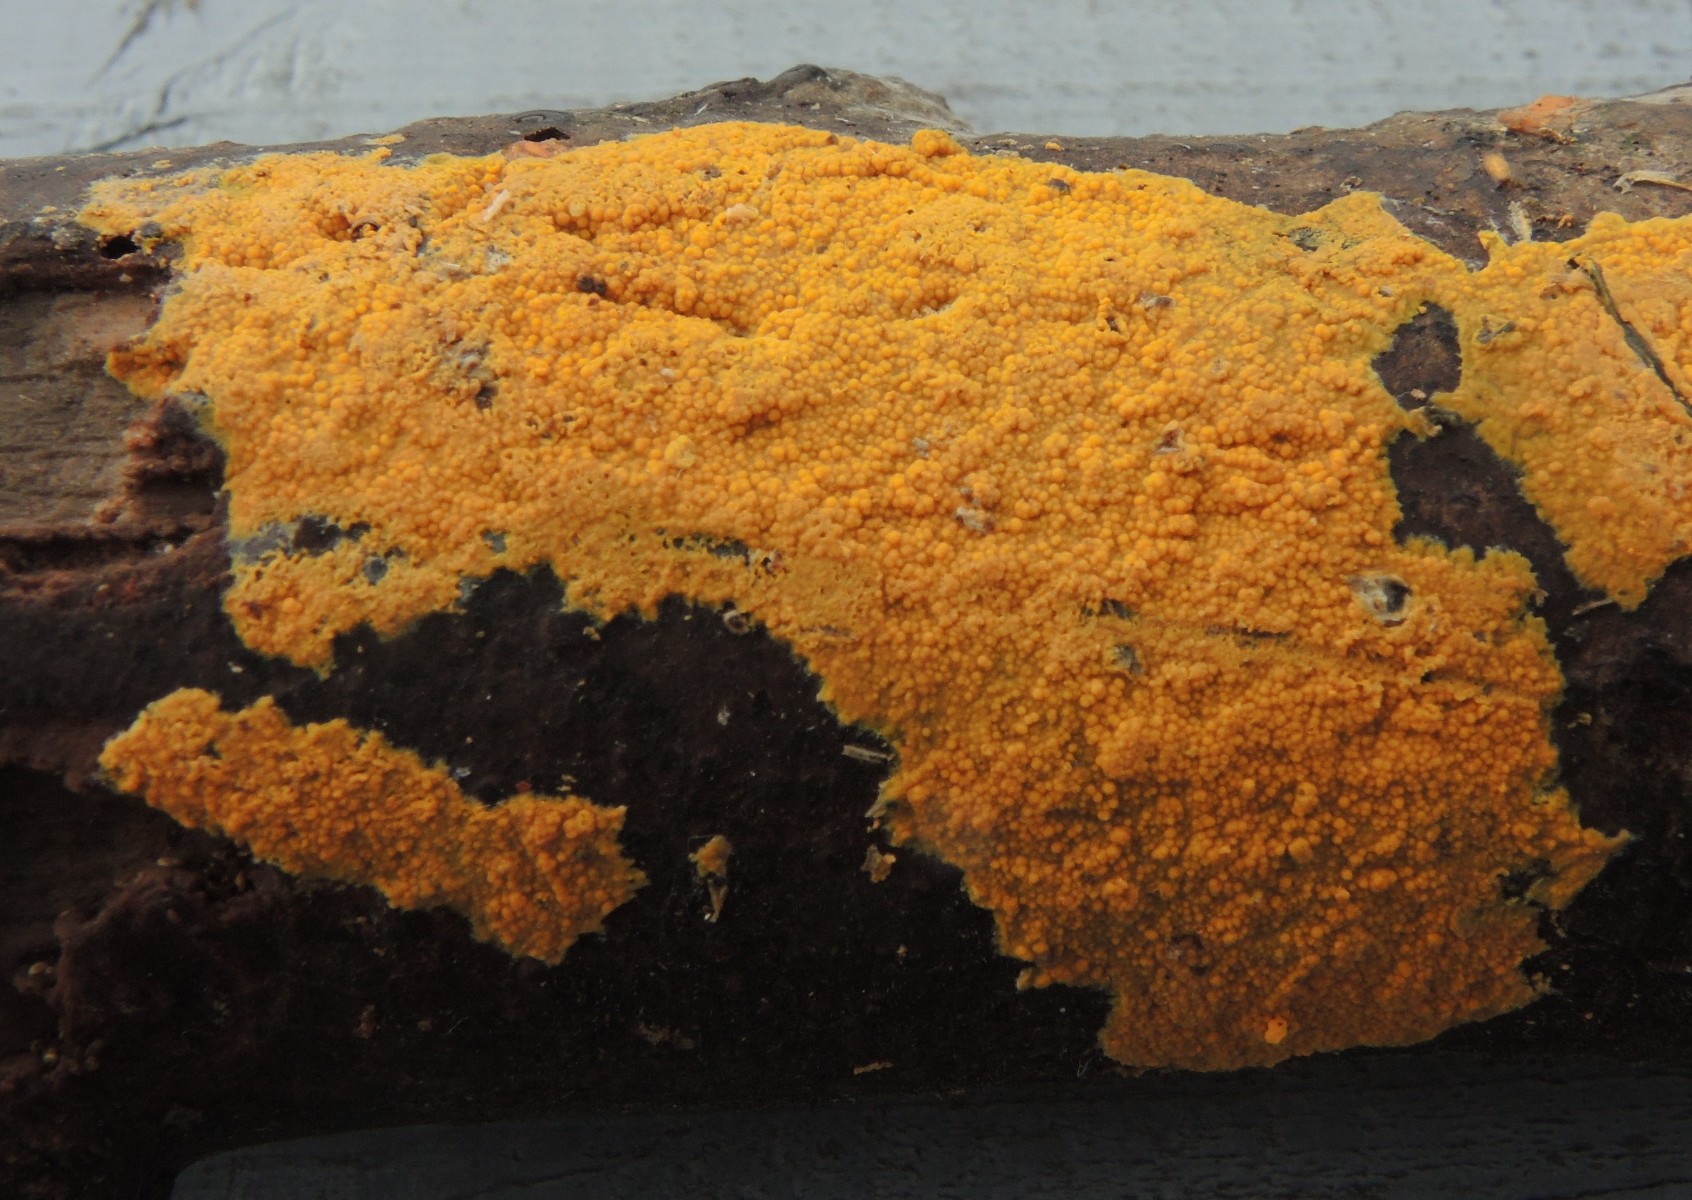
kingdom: Fungi
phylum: Basidiomycota
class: Agaricomycetes
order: Polyporales
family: Meruliaceae
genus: Phlebiodontia
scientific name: Phlebiodontia subochracea
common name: svovl-åresvamp
